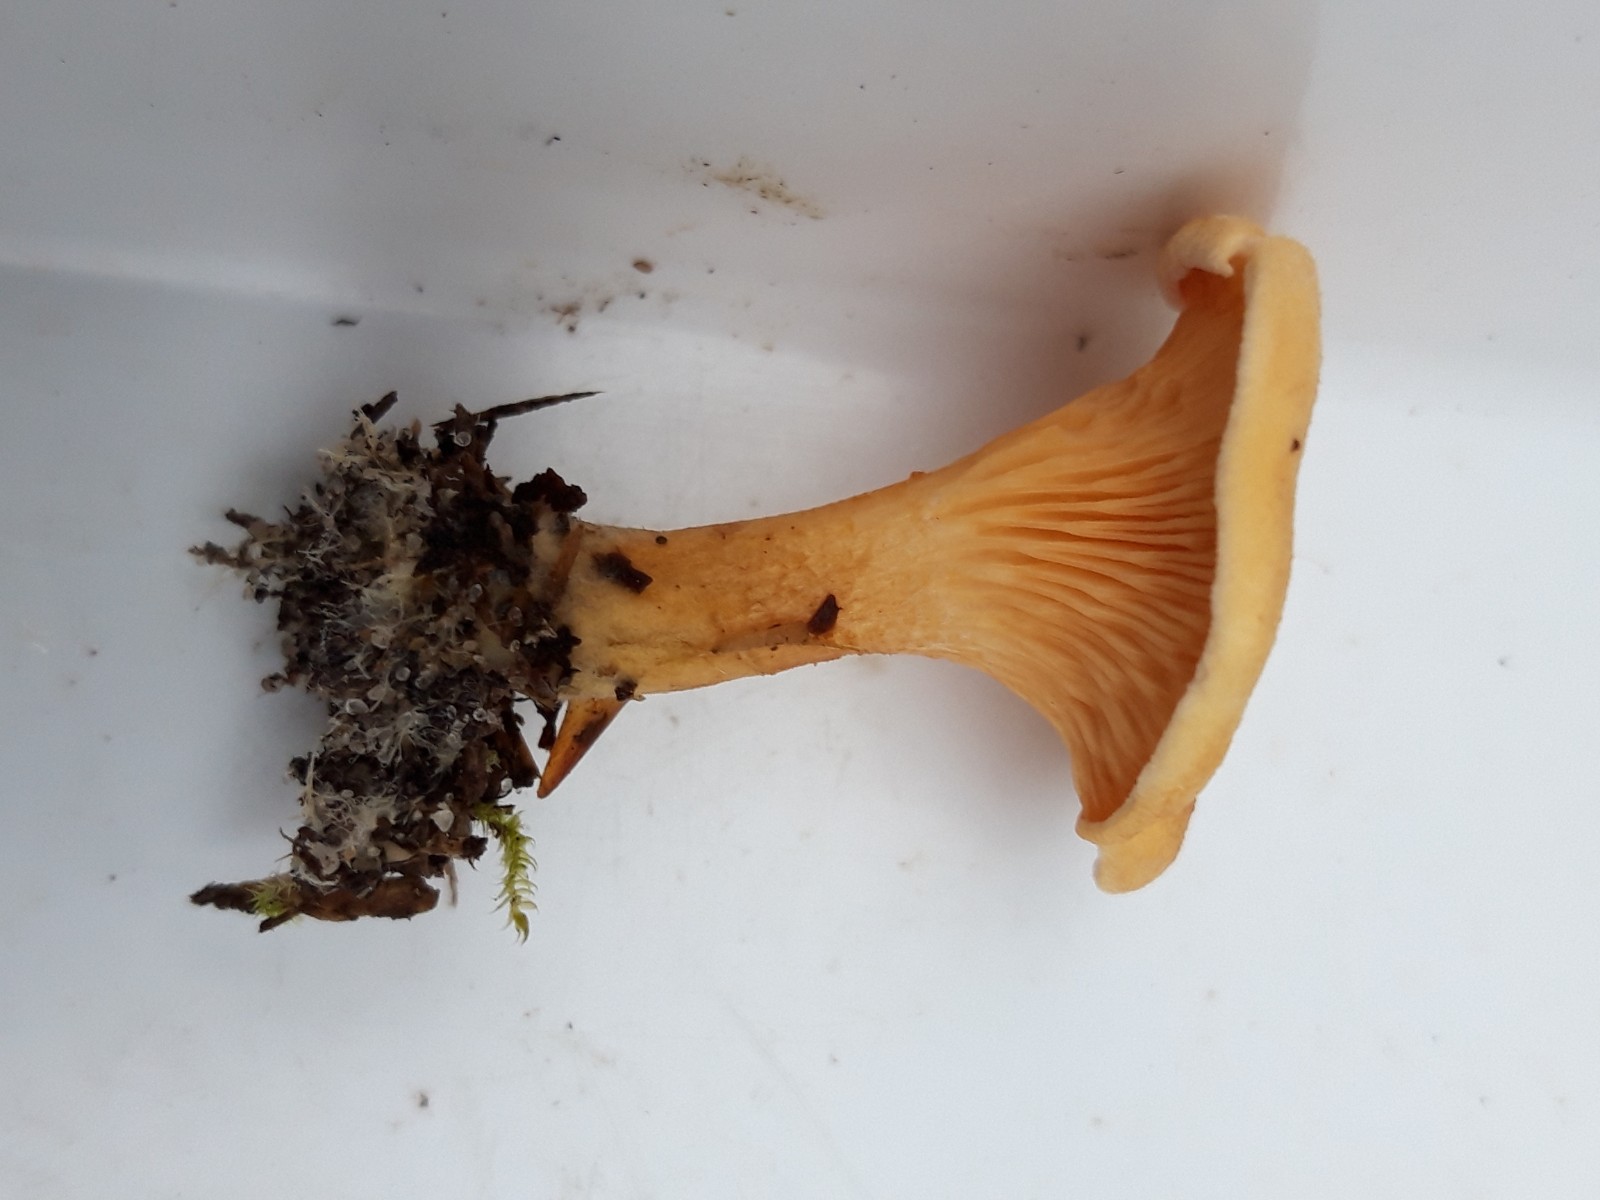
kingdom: Fungi
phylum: Basidiomycota
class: Agaricomycetes
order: Boletales
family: Hygrophoropsidaceae
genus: Hygrophoropsis
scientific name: Hygrophoropsis aurantiaca
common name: almindelig orangekantarel
